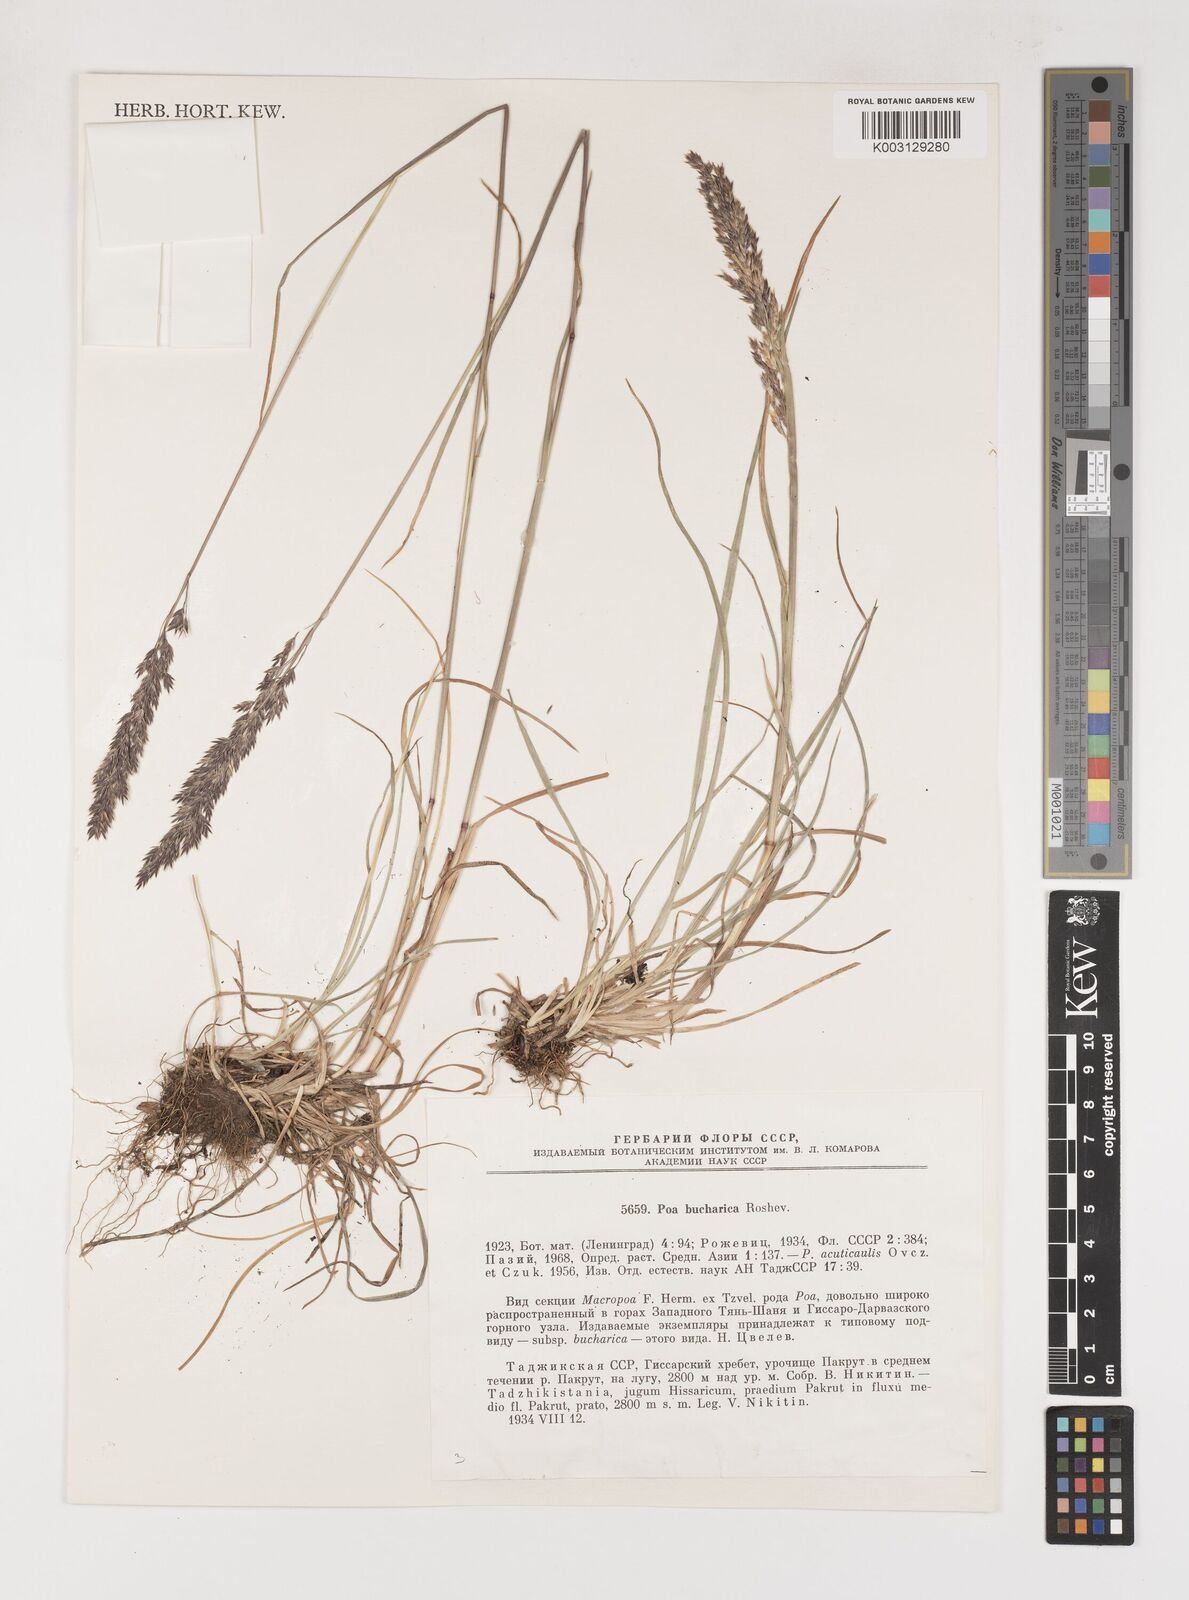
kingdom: Plantae
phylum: Tracheophyta
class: Liliopsida
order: Poales
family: Poaceae
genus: Poa
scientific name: Poa bucharica
